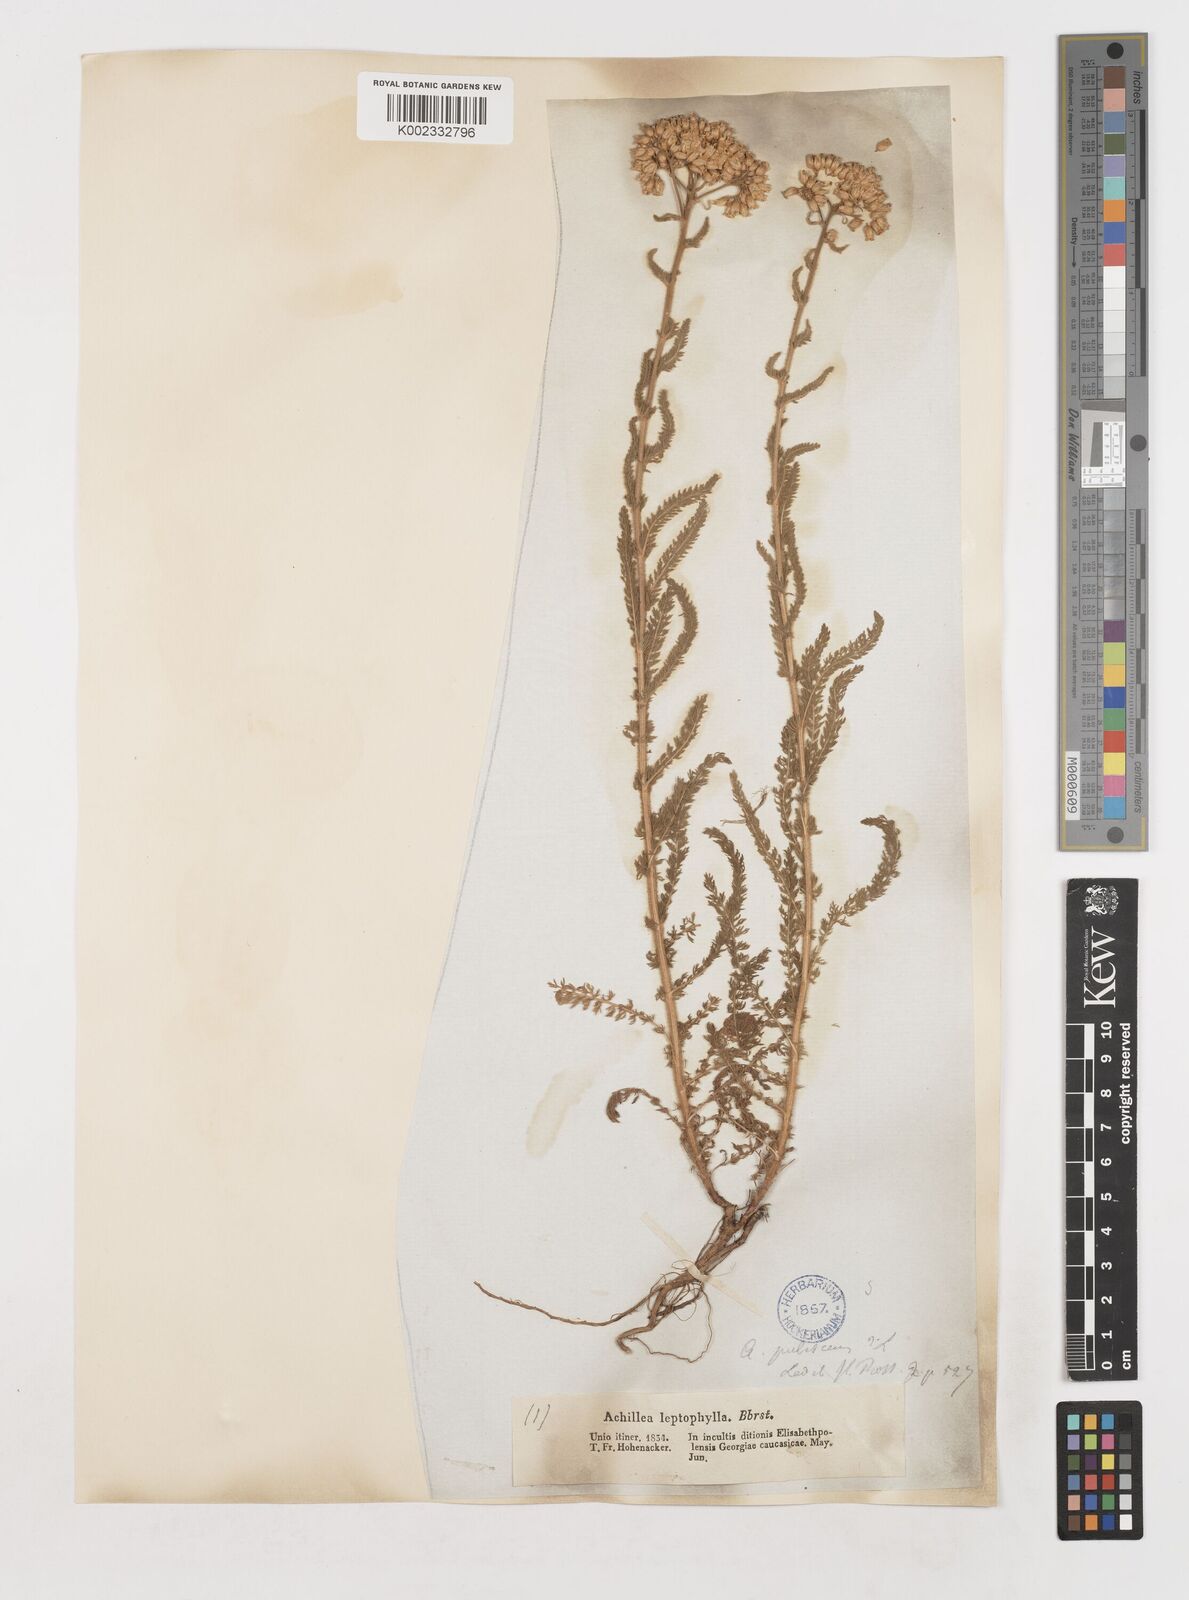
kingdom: Plantae
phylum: Tracheophyta
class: Magnoliopsida
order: Asterales
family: Asteraceae
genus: Achillea
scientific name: Achillea arabica
